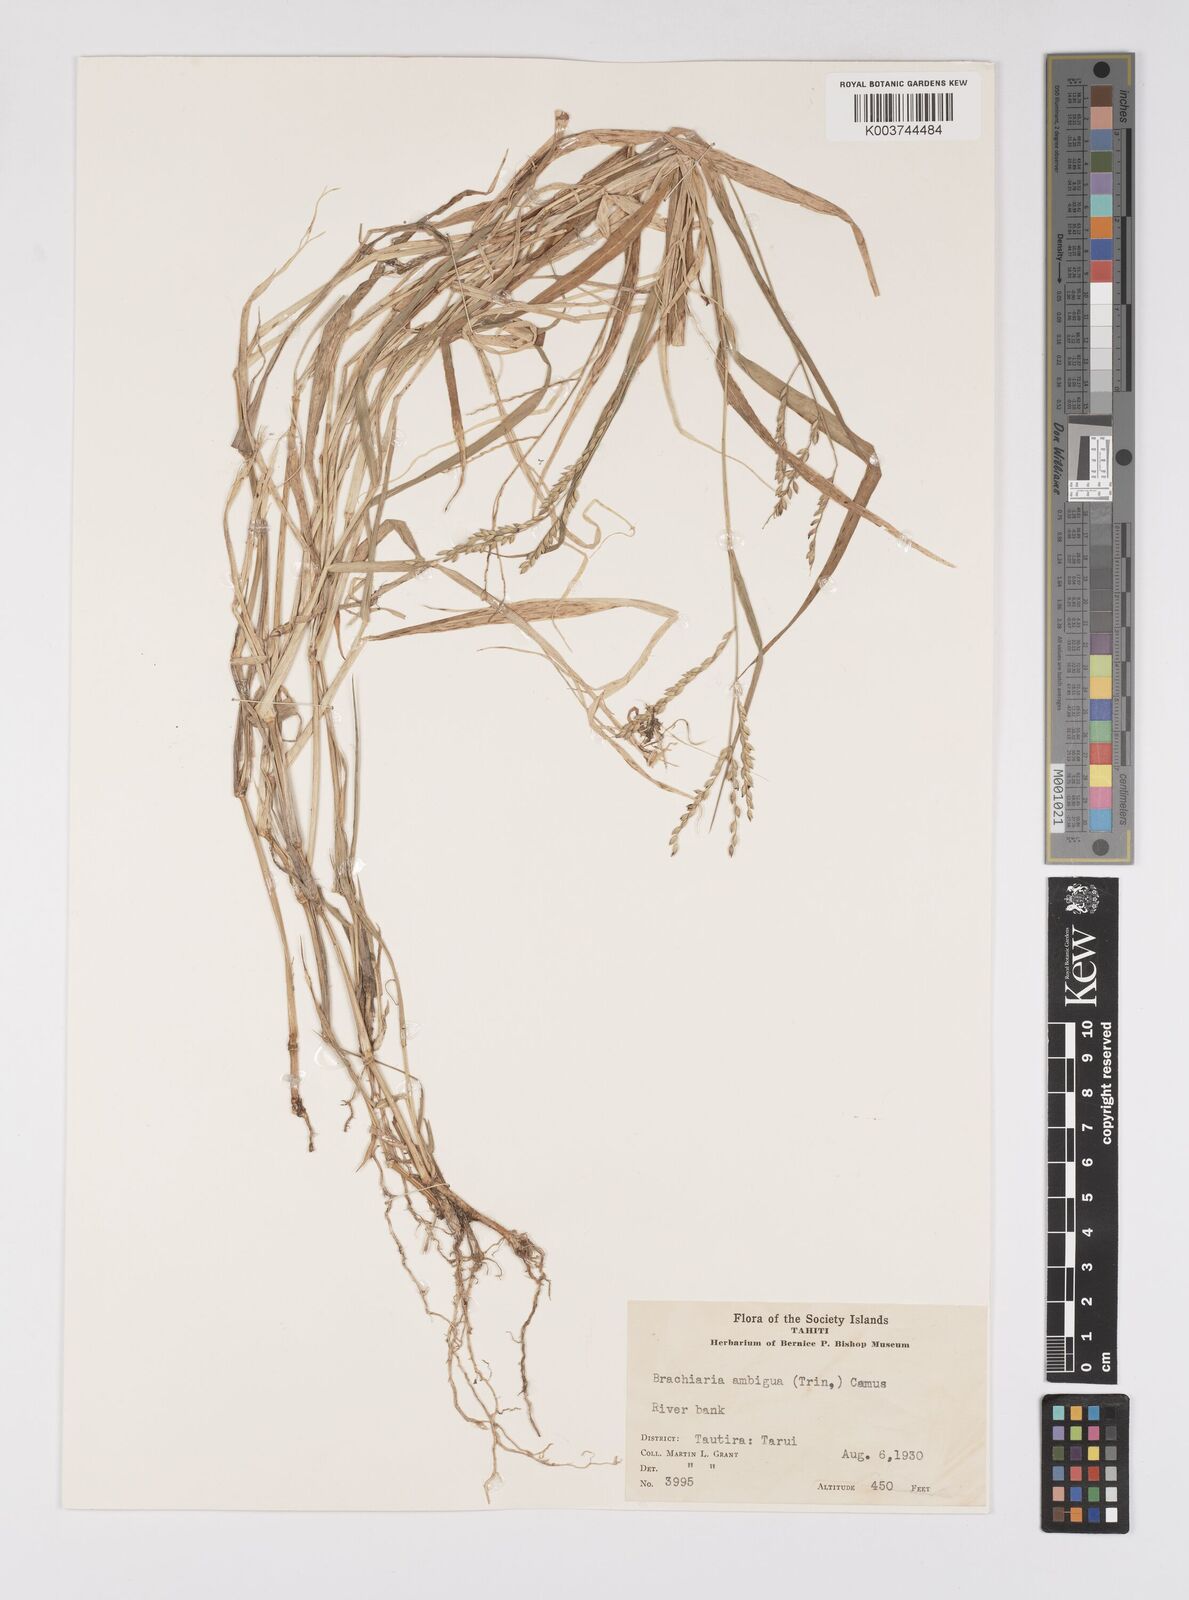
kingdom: Plantae
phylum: Tracheophyta
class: Liliopsida
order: Poales
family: Poaceae
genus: Urochloa
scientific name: Urochloa glumaris
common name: Thurston grass
